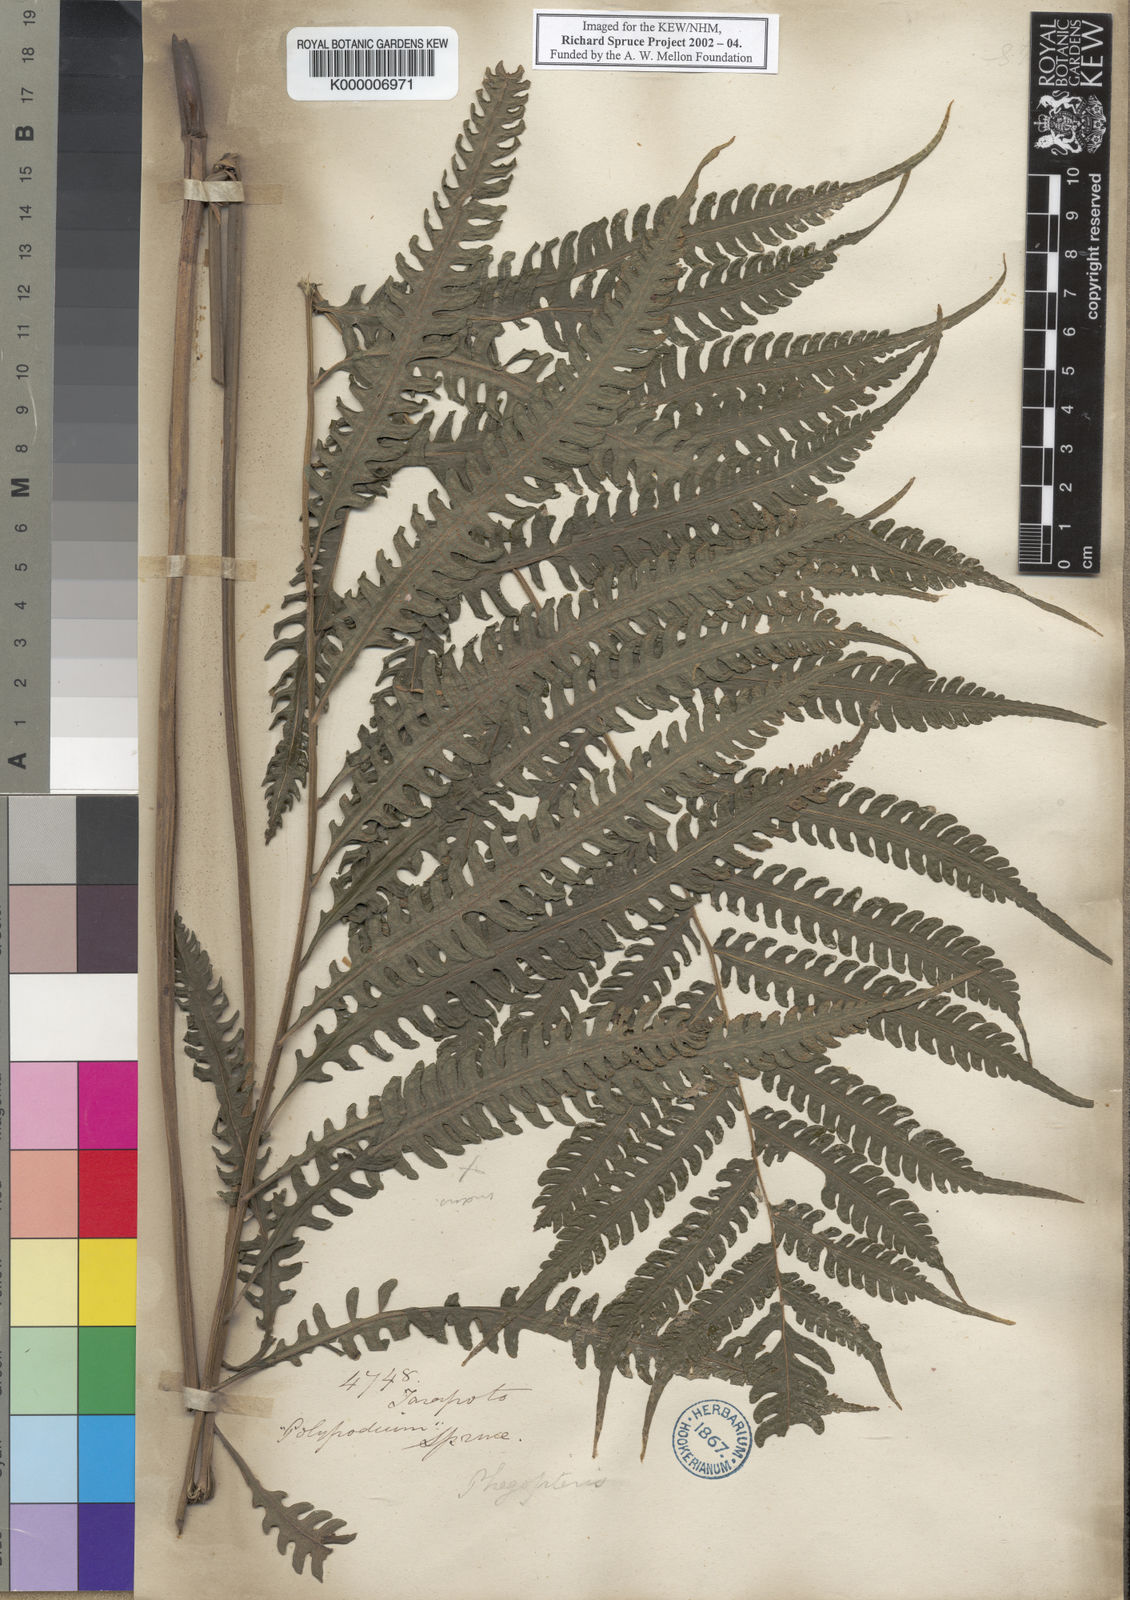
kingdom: Plantae
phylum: Tracheophyta
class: Polypodiopsida
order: Polypodiales
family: Thelypteridaceae
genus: Goniopteris
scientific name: Goniopteris tetragona
